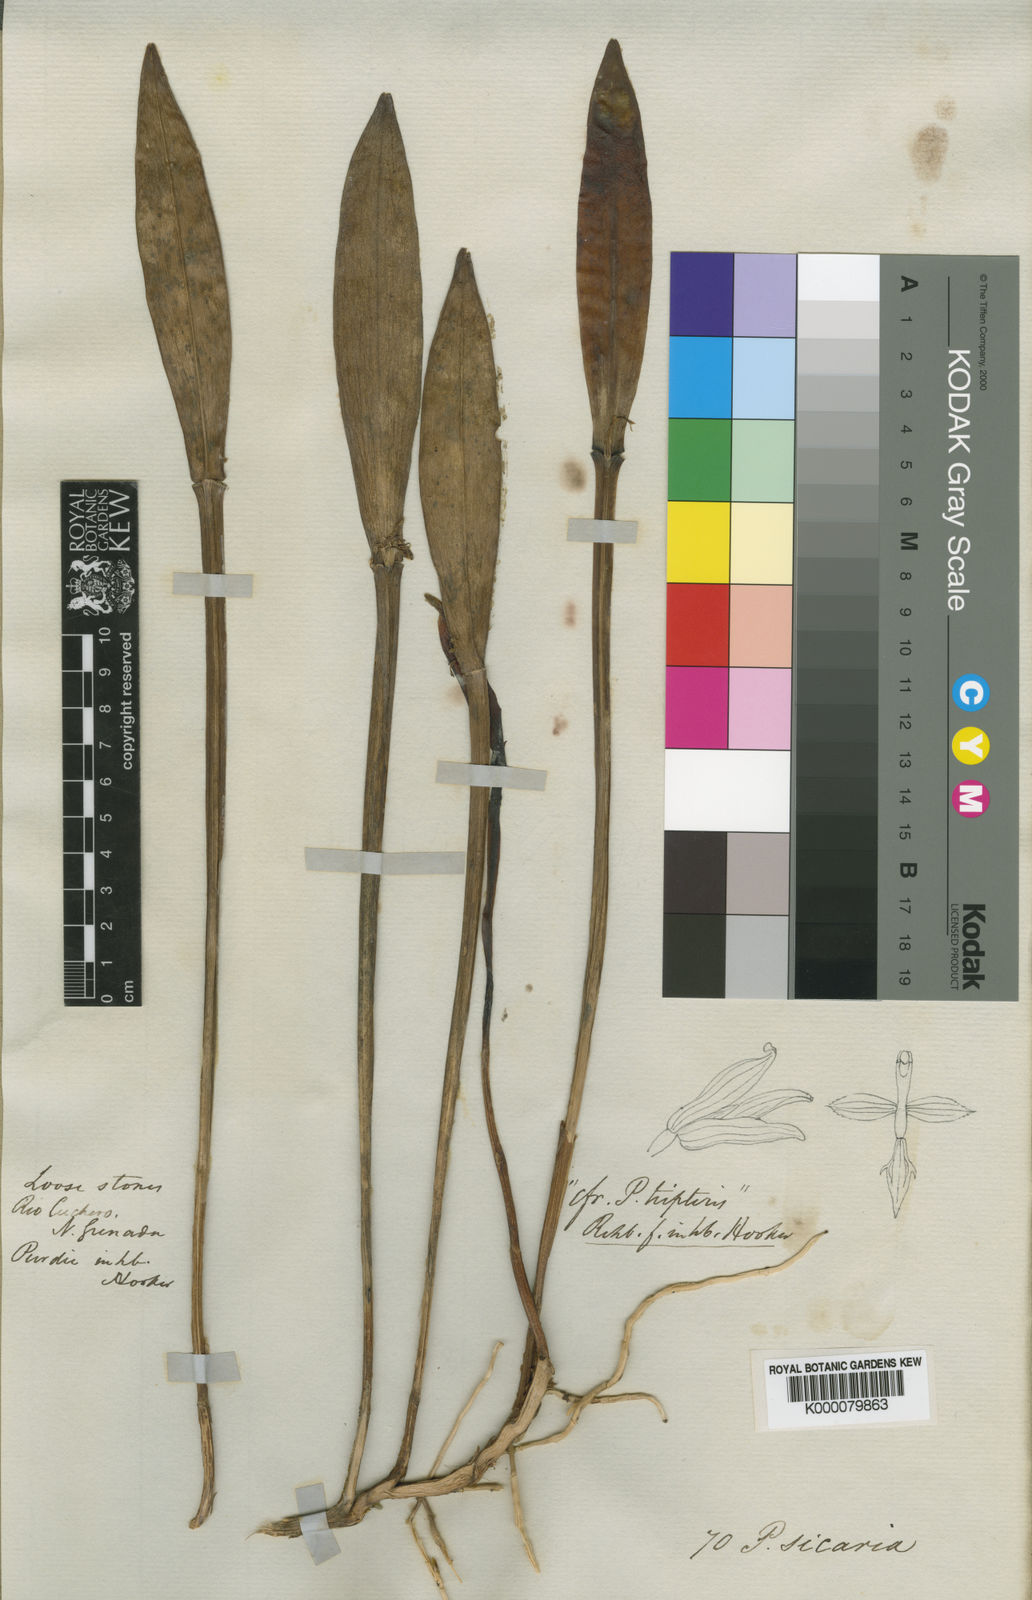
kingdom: Plantae
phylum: Tracheophyta
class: Liliopsida
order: Asparagales
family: Orchidaceae
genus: Acianthera
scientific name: Acianthera sicaria
